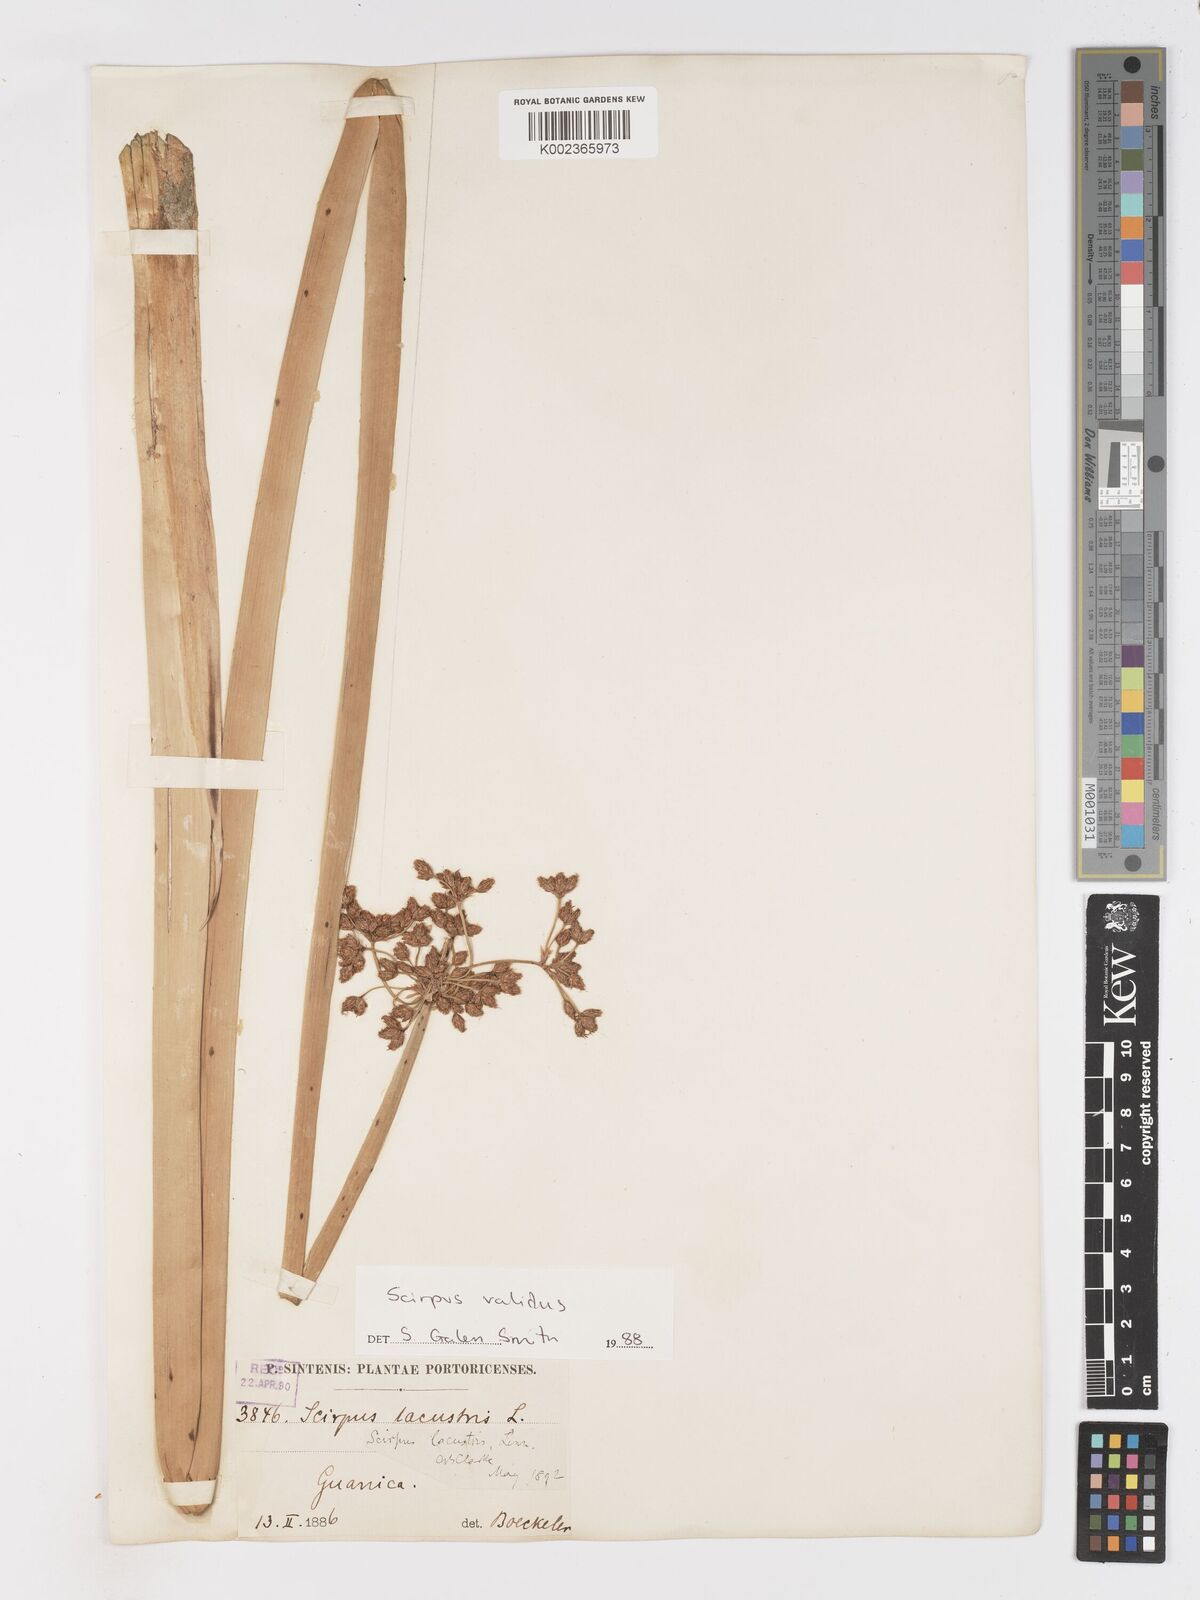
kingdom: Plantae
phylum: Tracheophyta
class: Liliopsida
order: Poales
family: Cyperaceae
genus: Schoenoplectus
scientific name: Schoenoplectus lacustris
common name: Common club-rush
